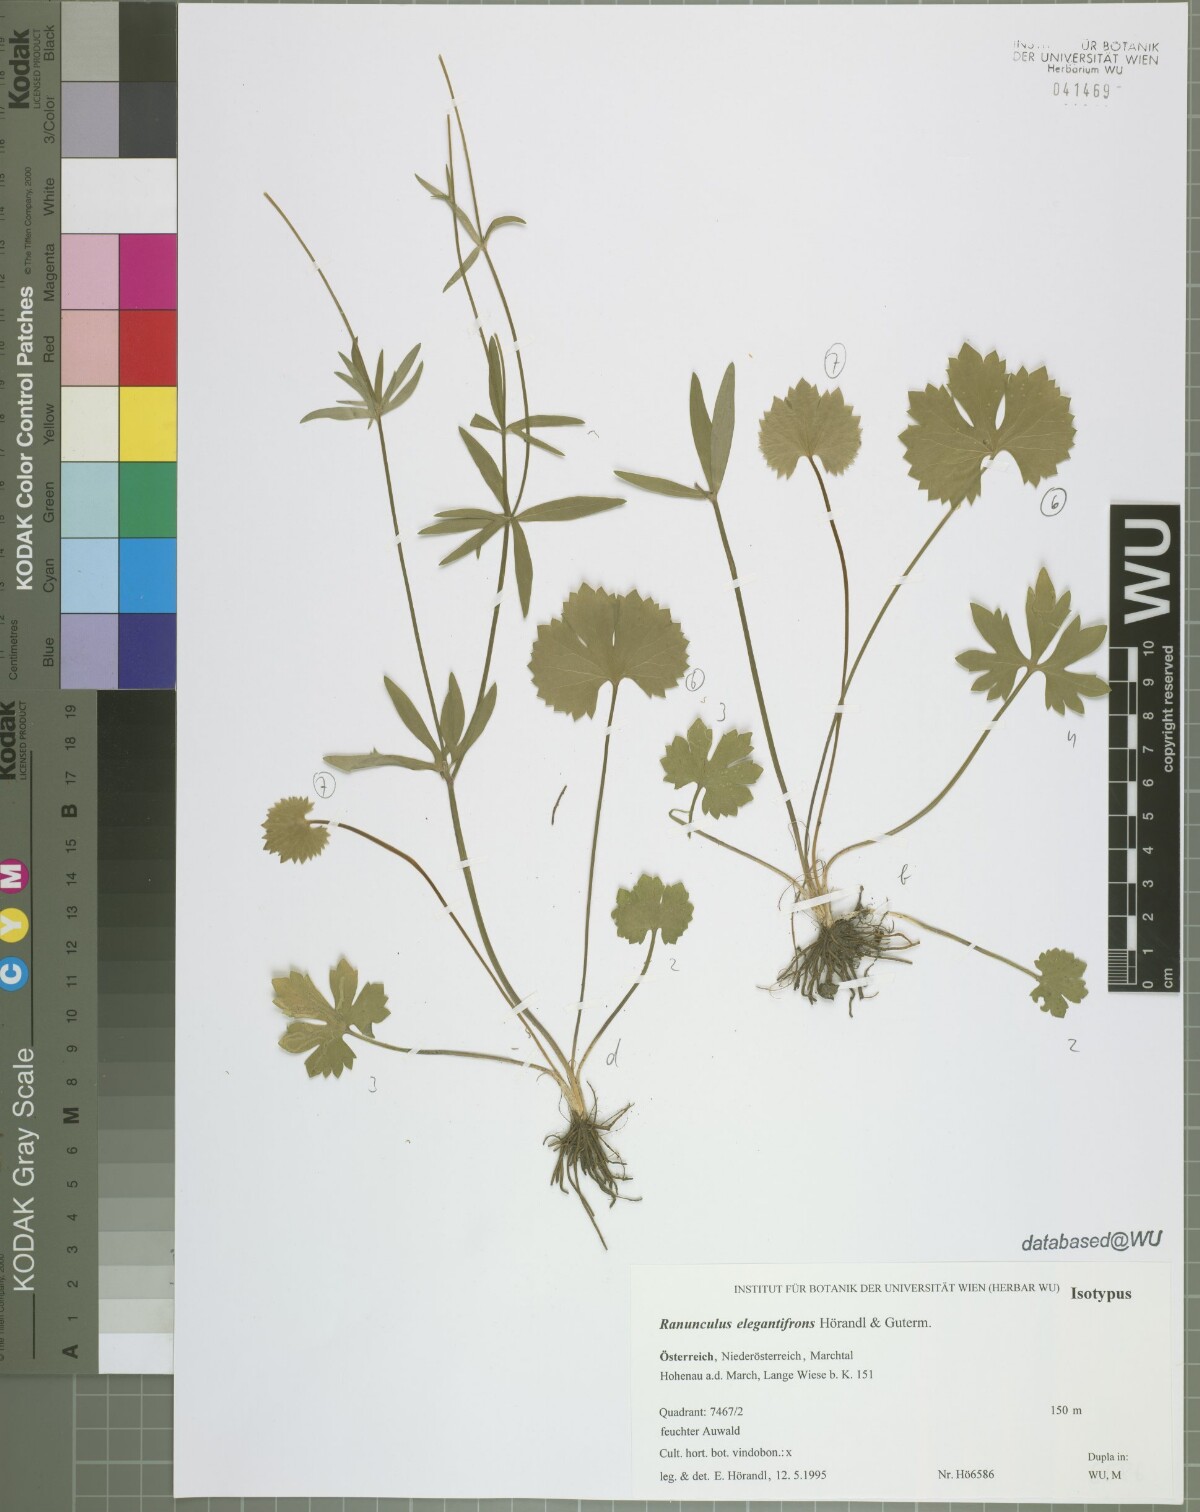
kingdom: Plantae
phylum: Tracheophyta
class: Magnoliopsida
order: Ranunculales
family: Ranunculaceae
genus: Ranunculus
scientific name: Ranunculus elegantifrons
